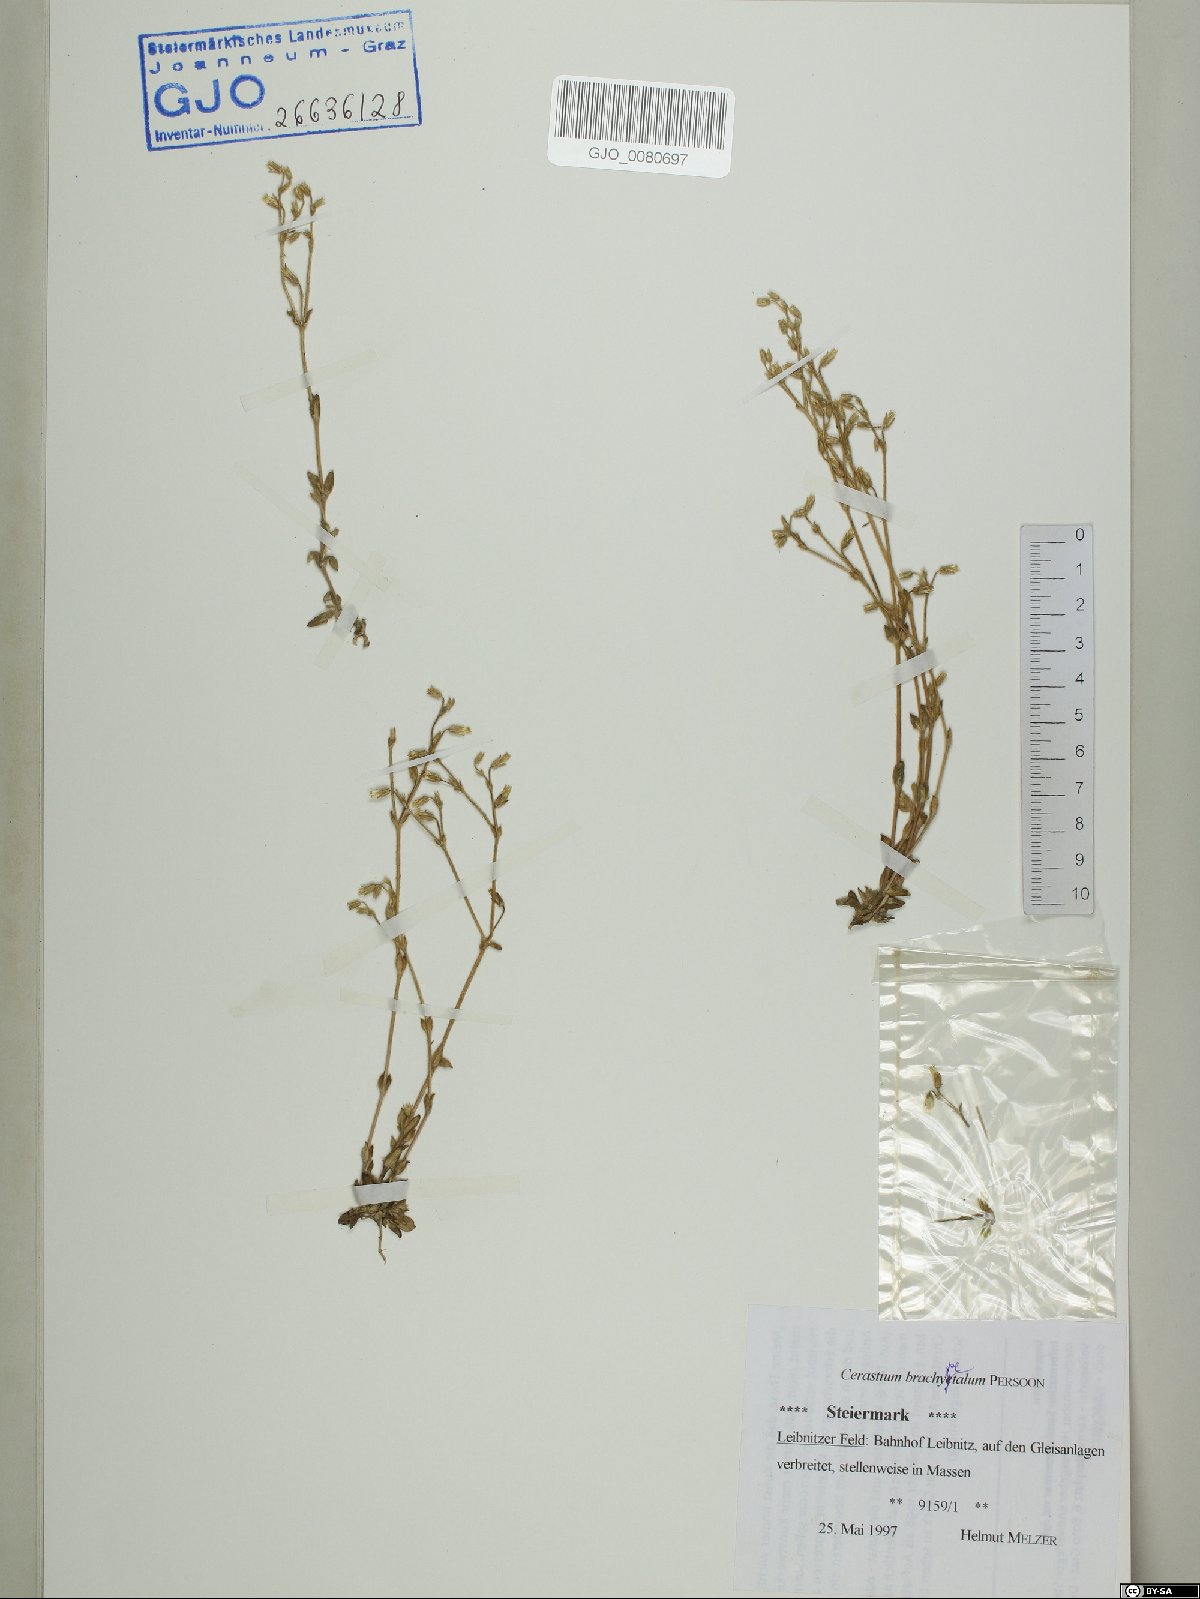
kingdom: Plantae
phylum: Tracheophyta
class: Magnoliopsida
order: Caryophyllales
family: Caryophyllaceae
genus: Cerastium
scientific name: Cerastium brachypetalum
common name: Grey mouse-ear
